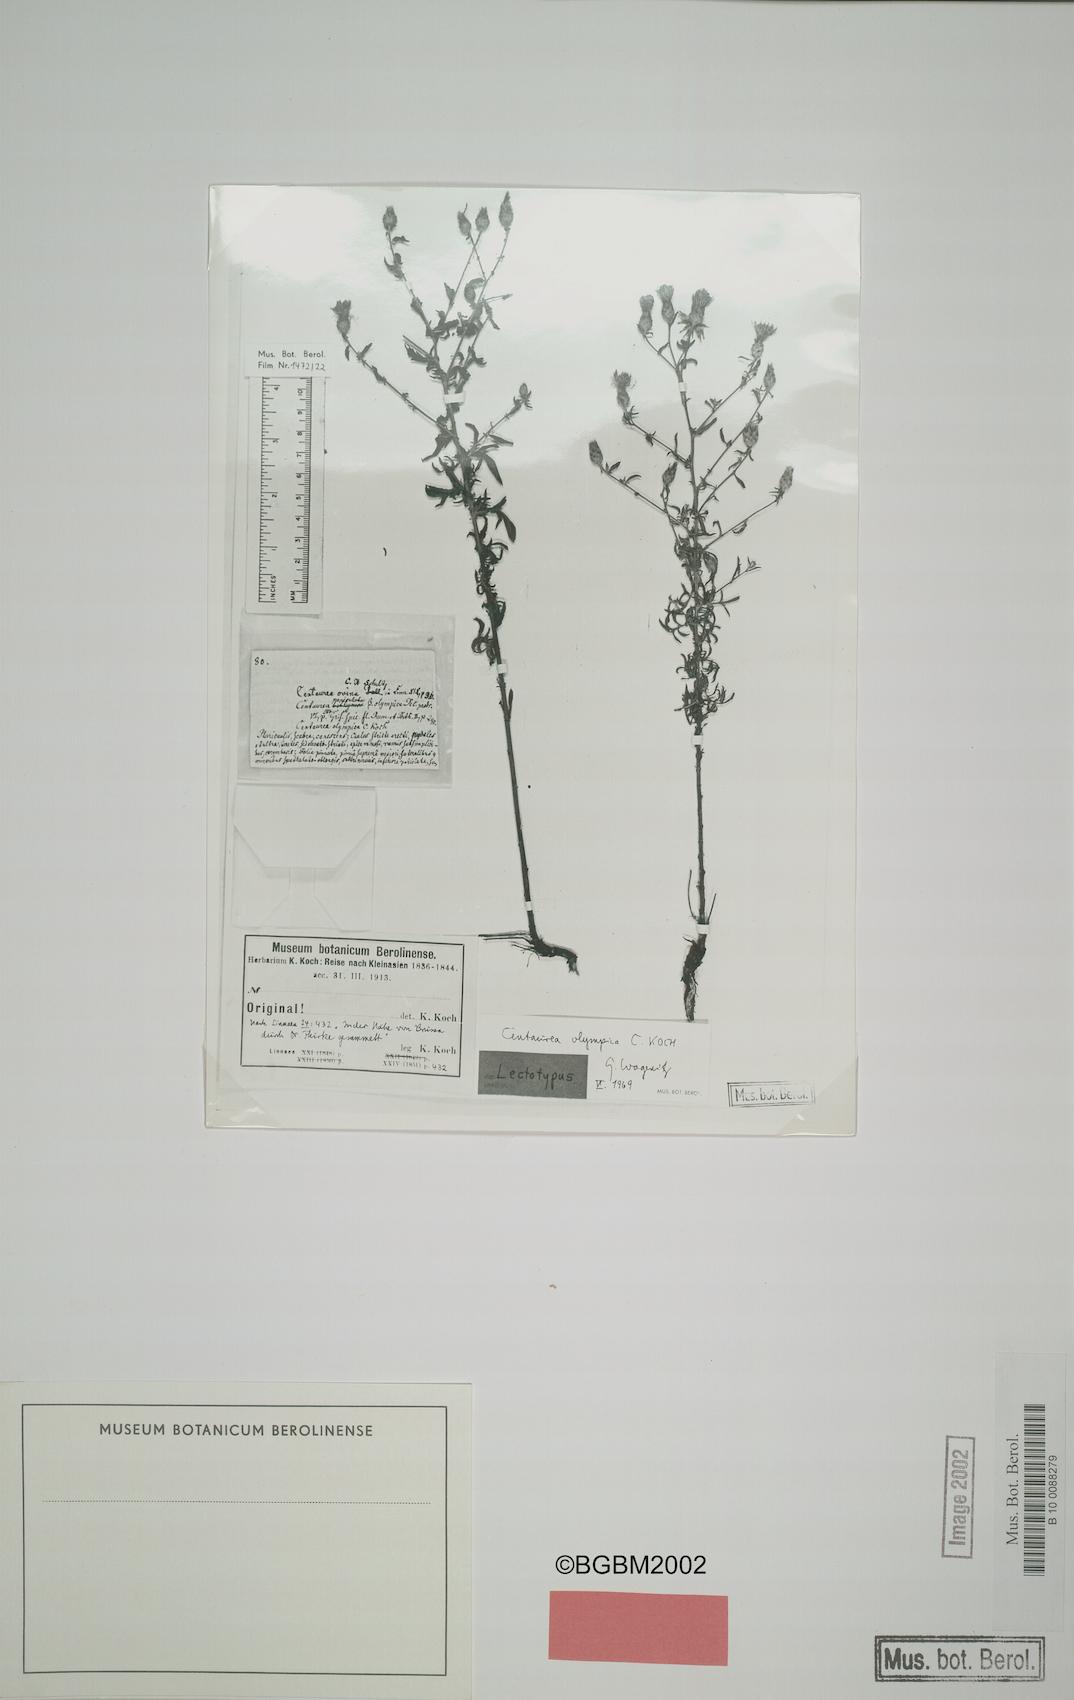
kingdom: Plantae
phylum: Tracheophyta
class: Magnoliopsida
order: Asterales
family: Asteraceae
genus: Centaurea
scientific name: Centaurea olympica
